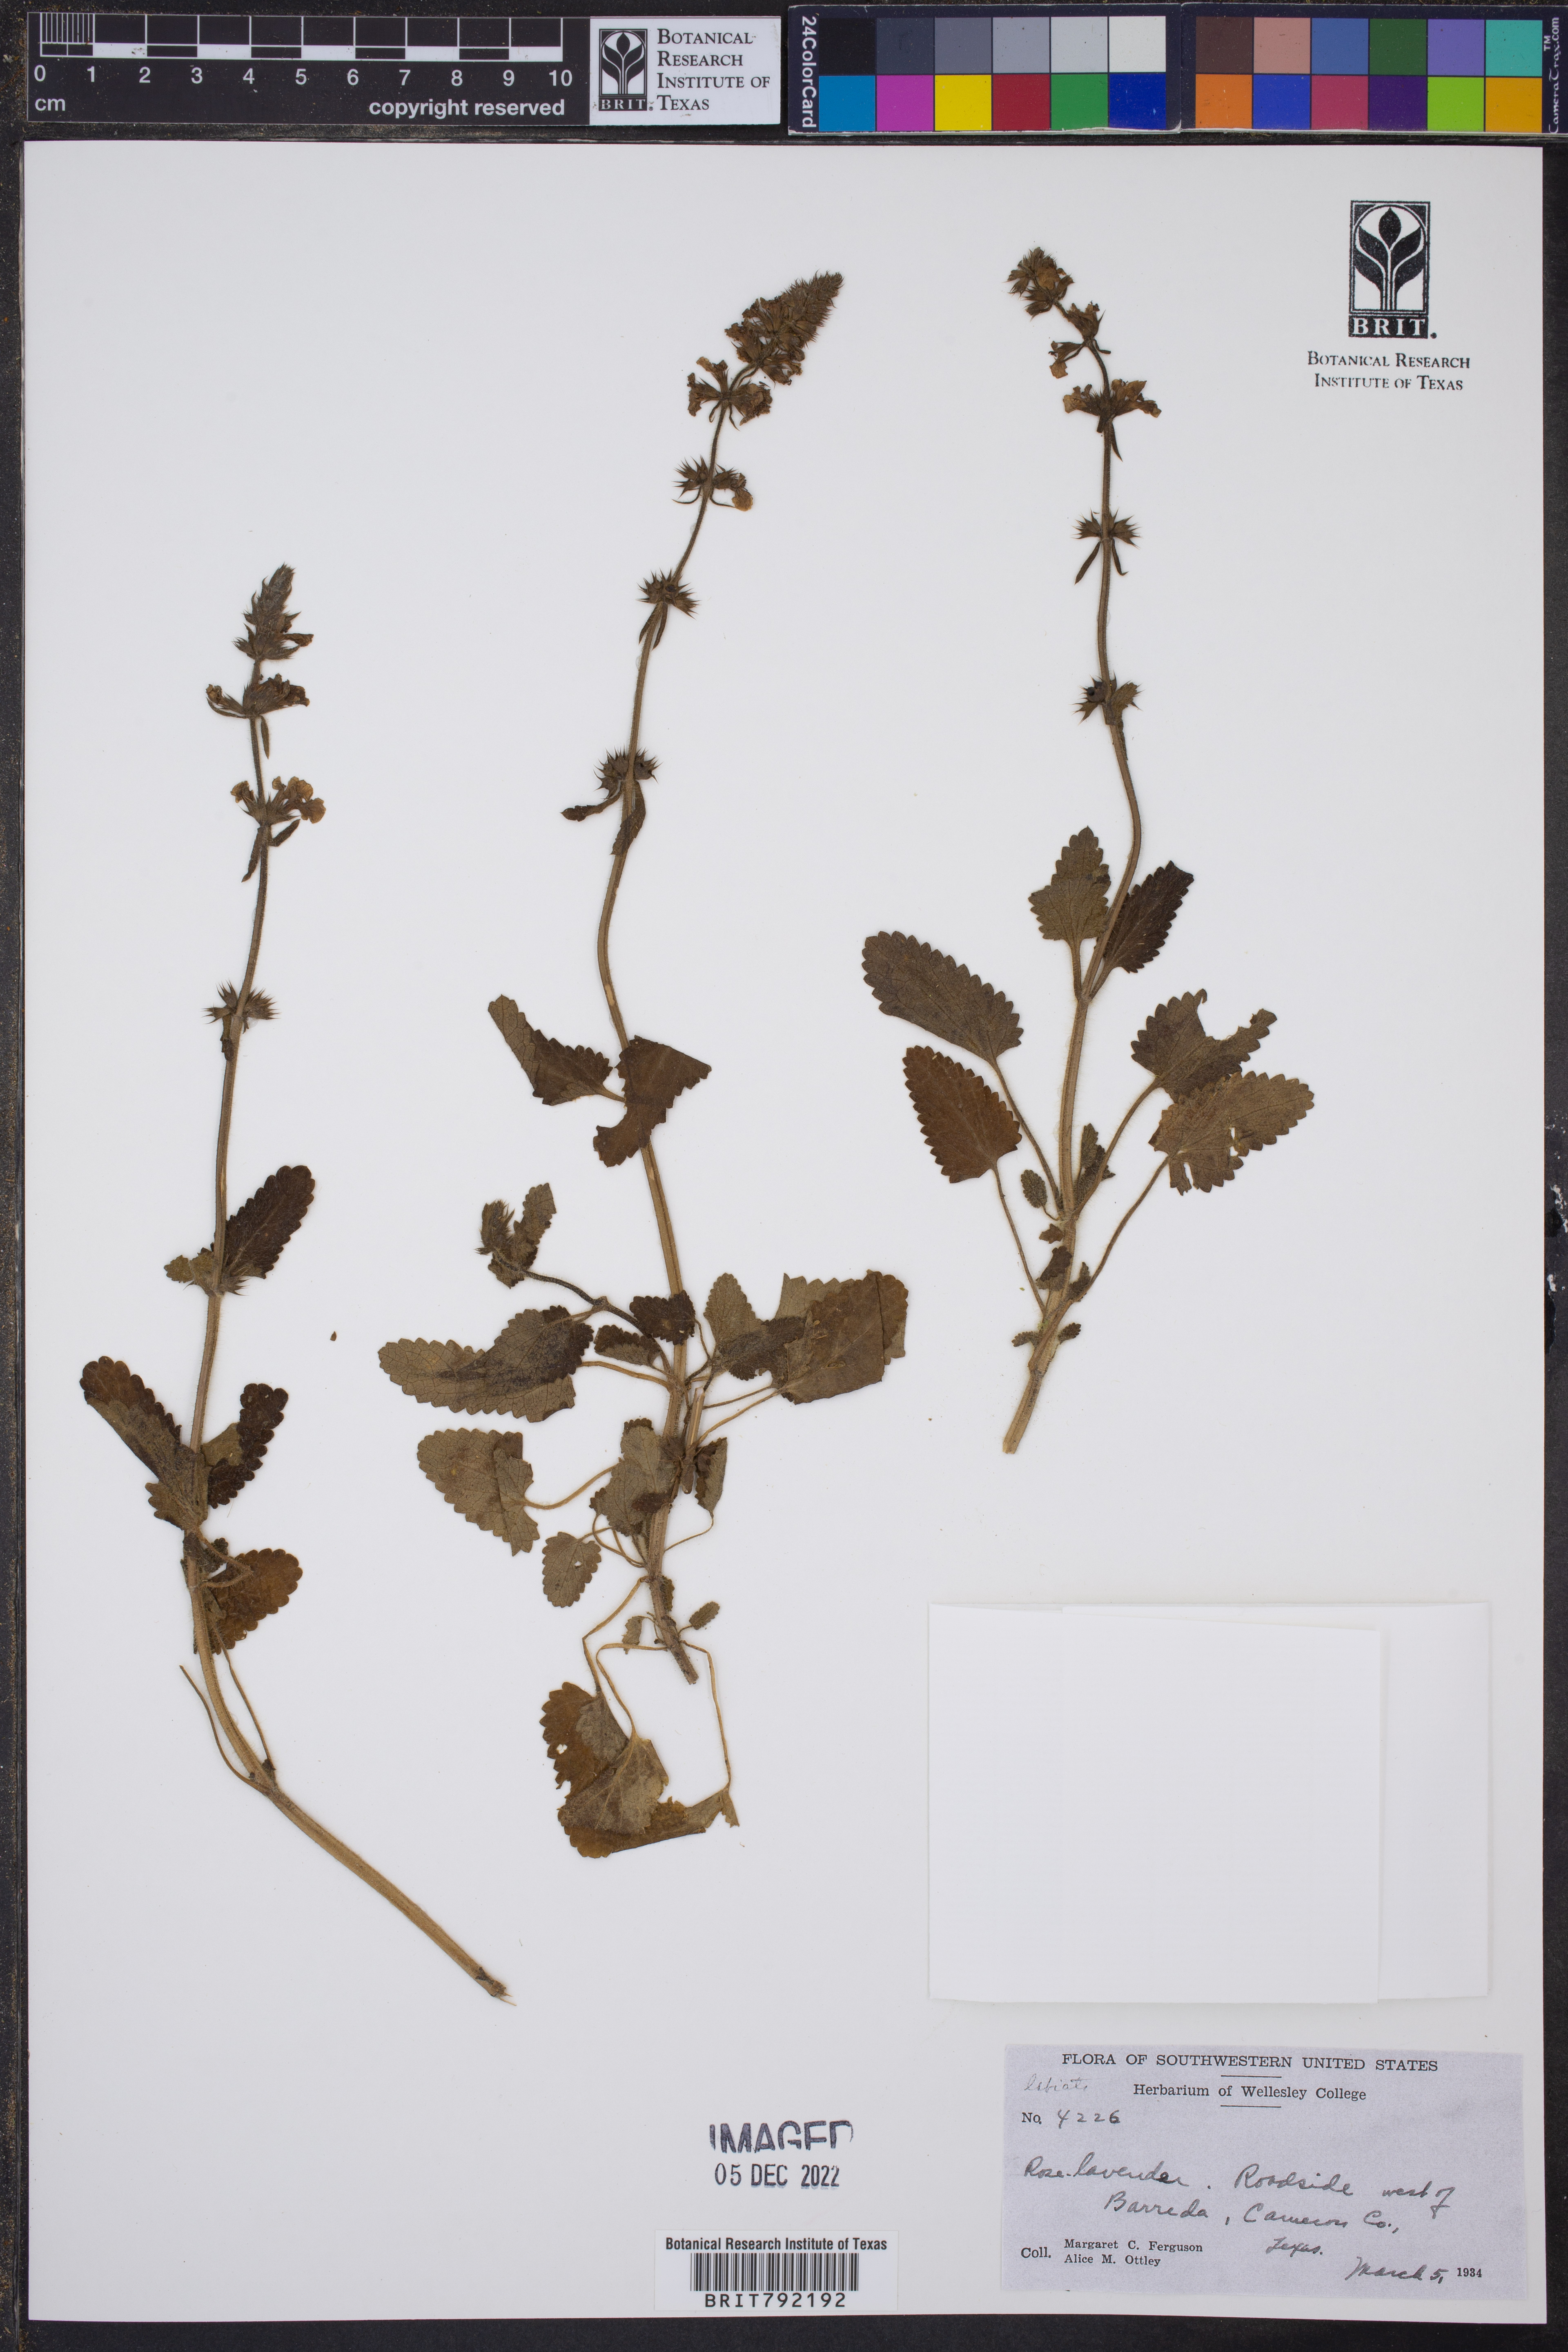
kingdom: Plantae
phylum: Tracheophyta
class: Magnoliopsida
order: Lamiales
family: Lamiaceae
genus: Nepeta
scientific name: Nepeta cataria
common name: Catnip
